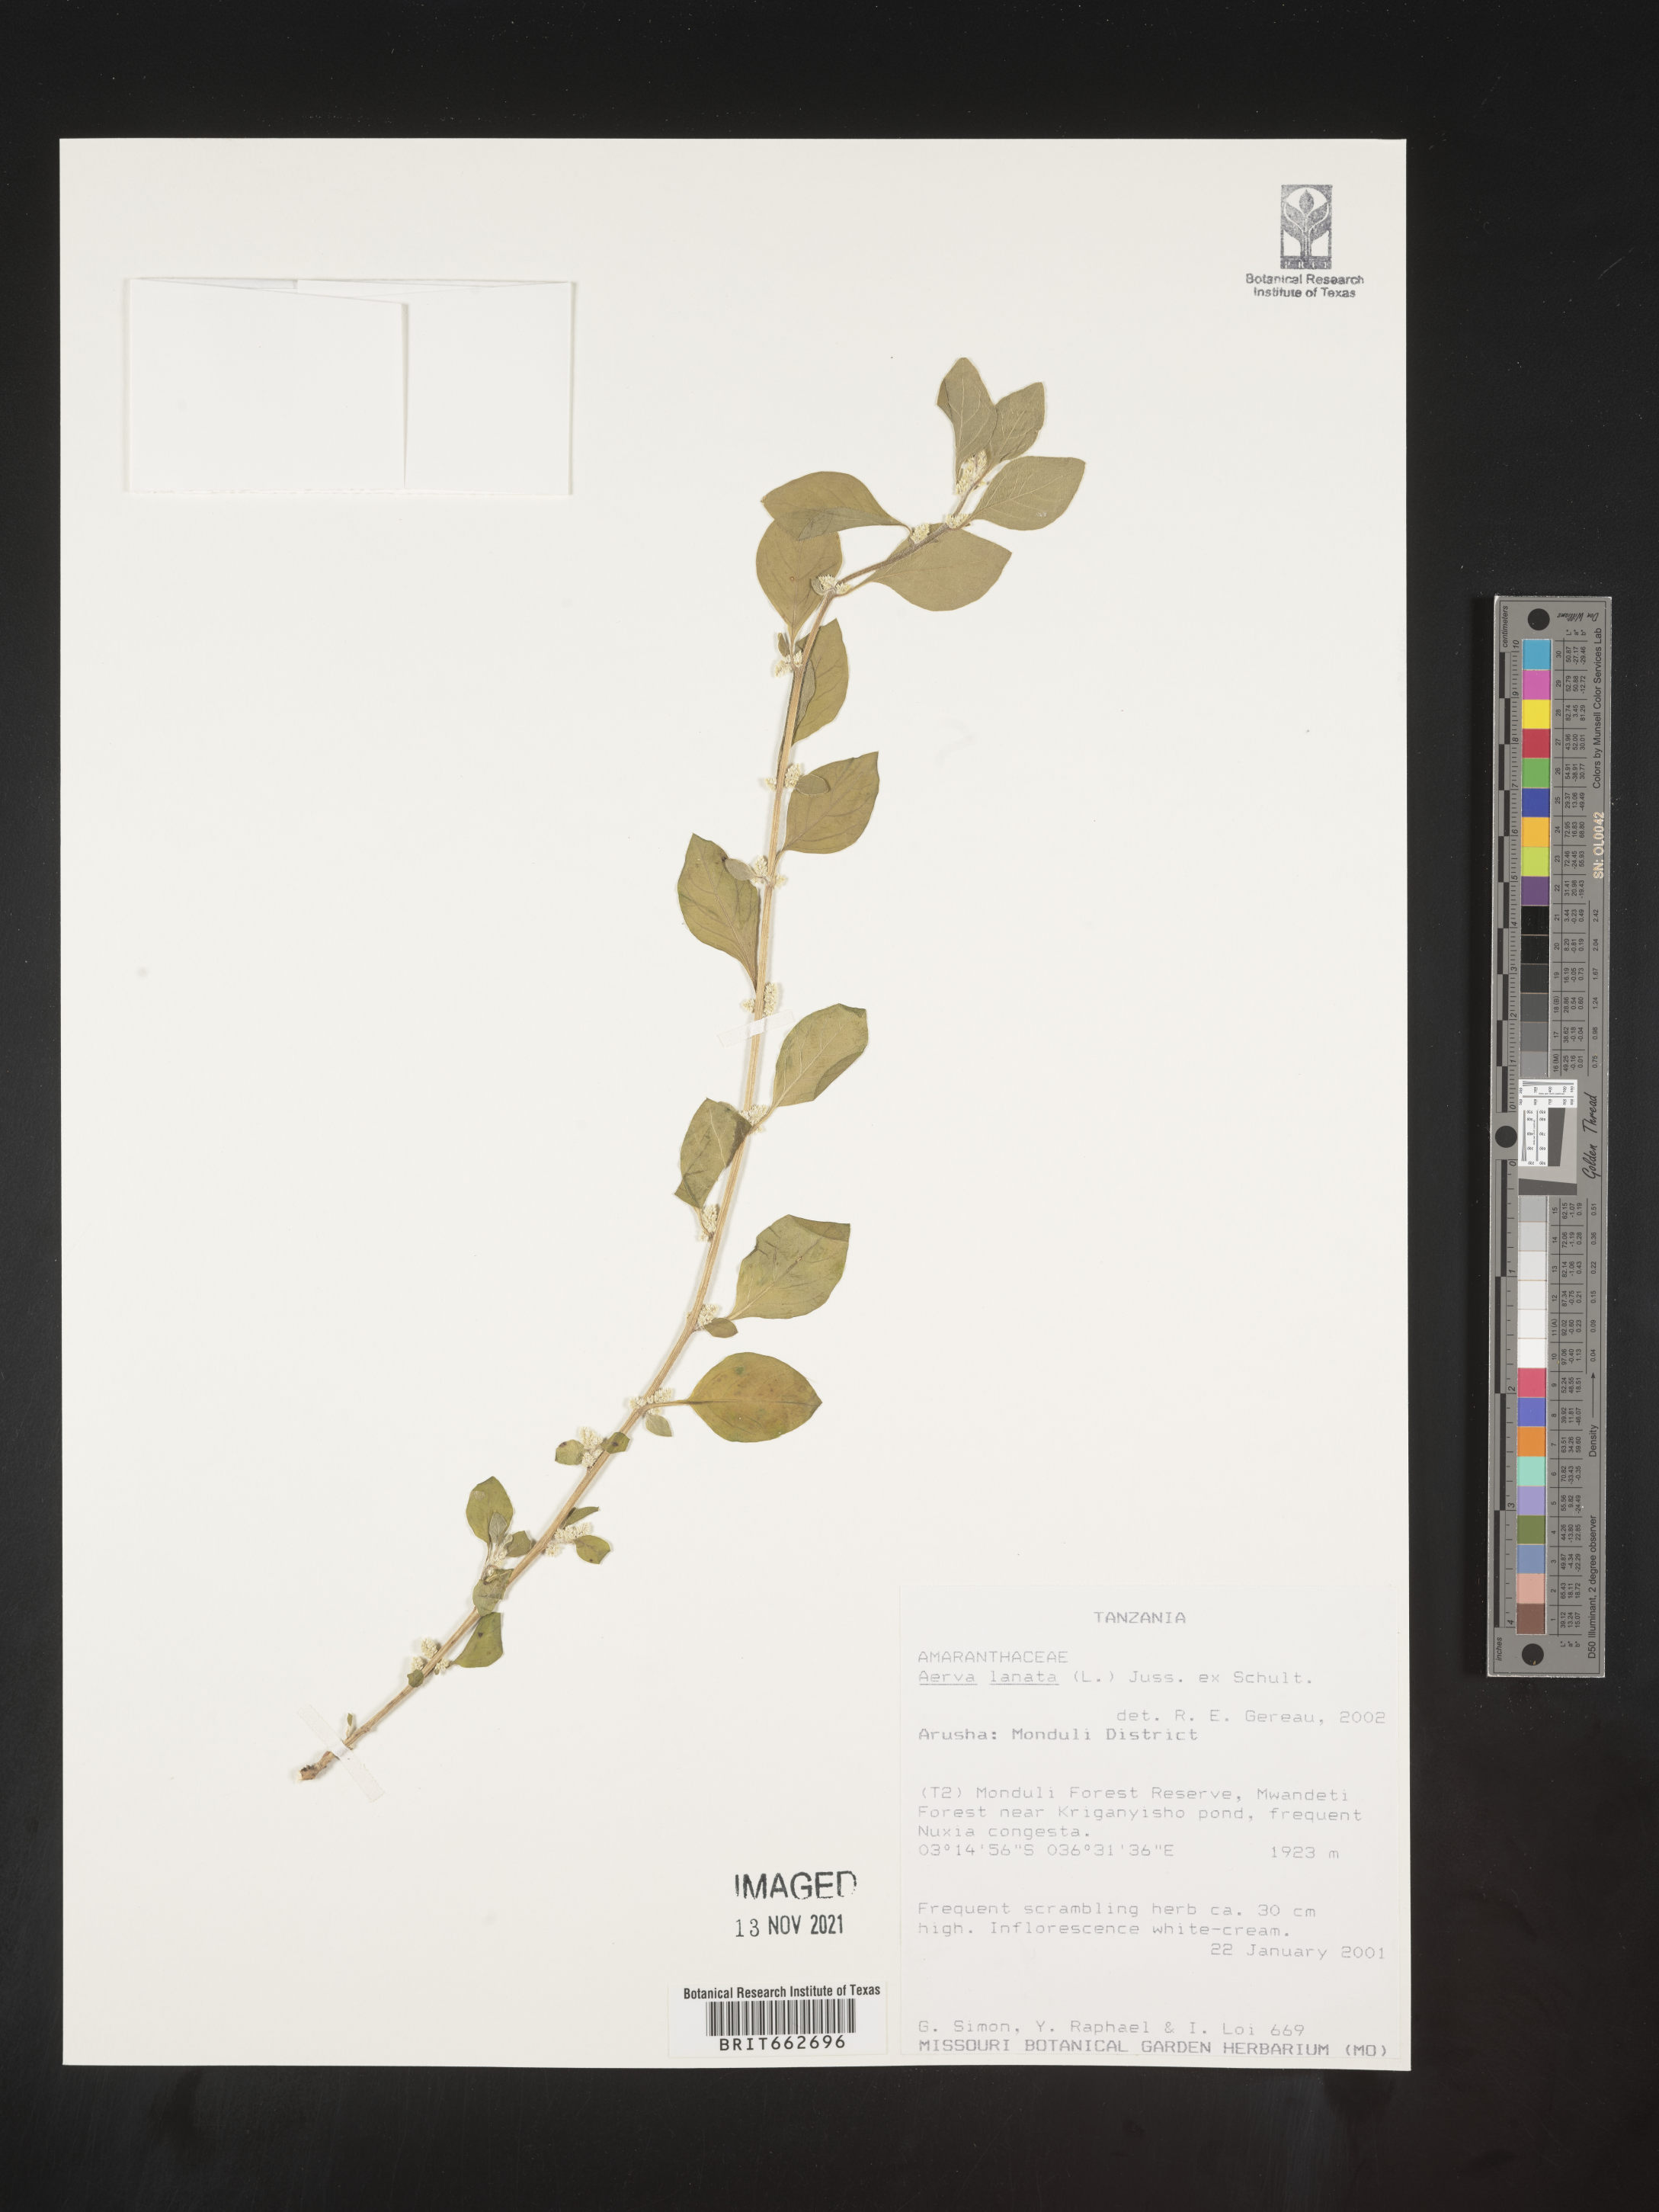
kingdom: Plantae
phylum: Tracheophyta
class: Magnoliopsida
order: Caryophyllales
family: Amaranthaceae
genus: Aerva
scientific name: Aerva
